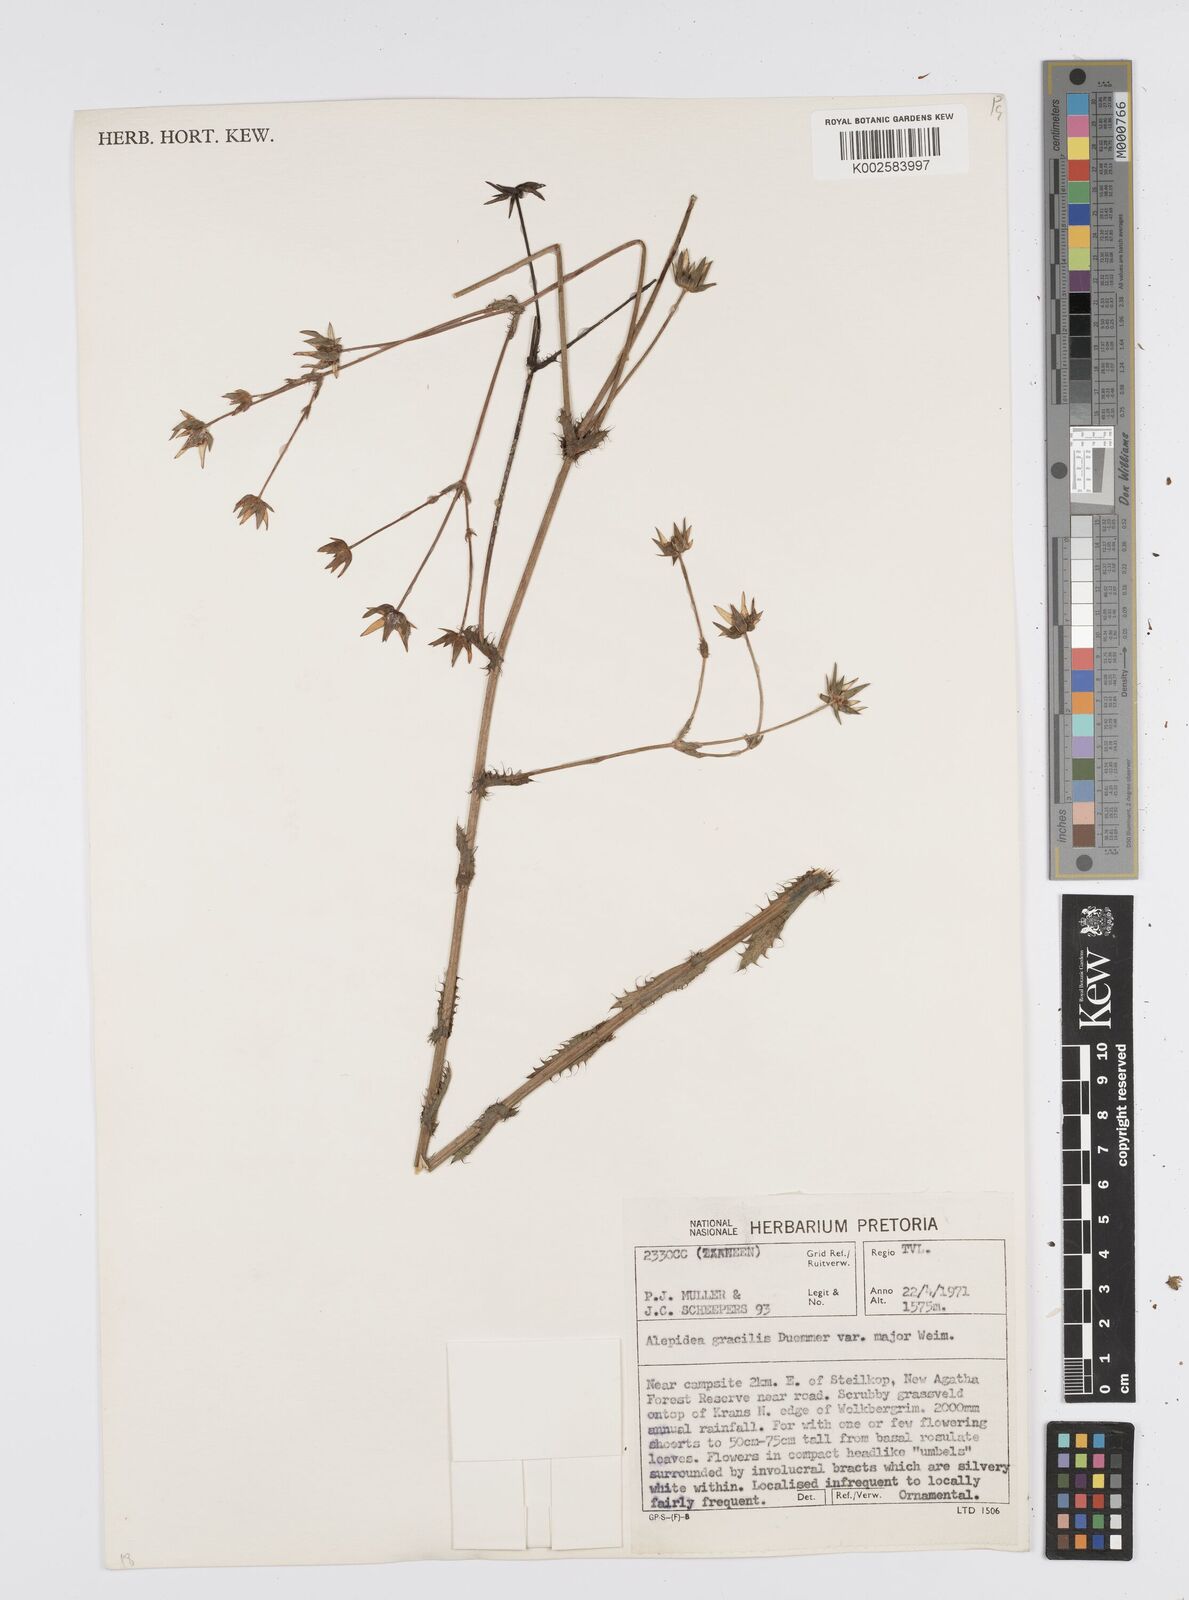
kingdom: Plantae
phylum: Tracheophyta
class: Magnoliopsida
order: Apiales
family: Apiaceae
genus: Alepidea
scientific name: Alepidea
